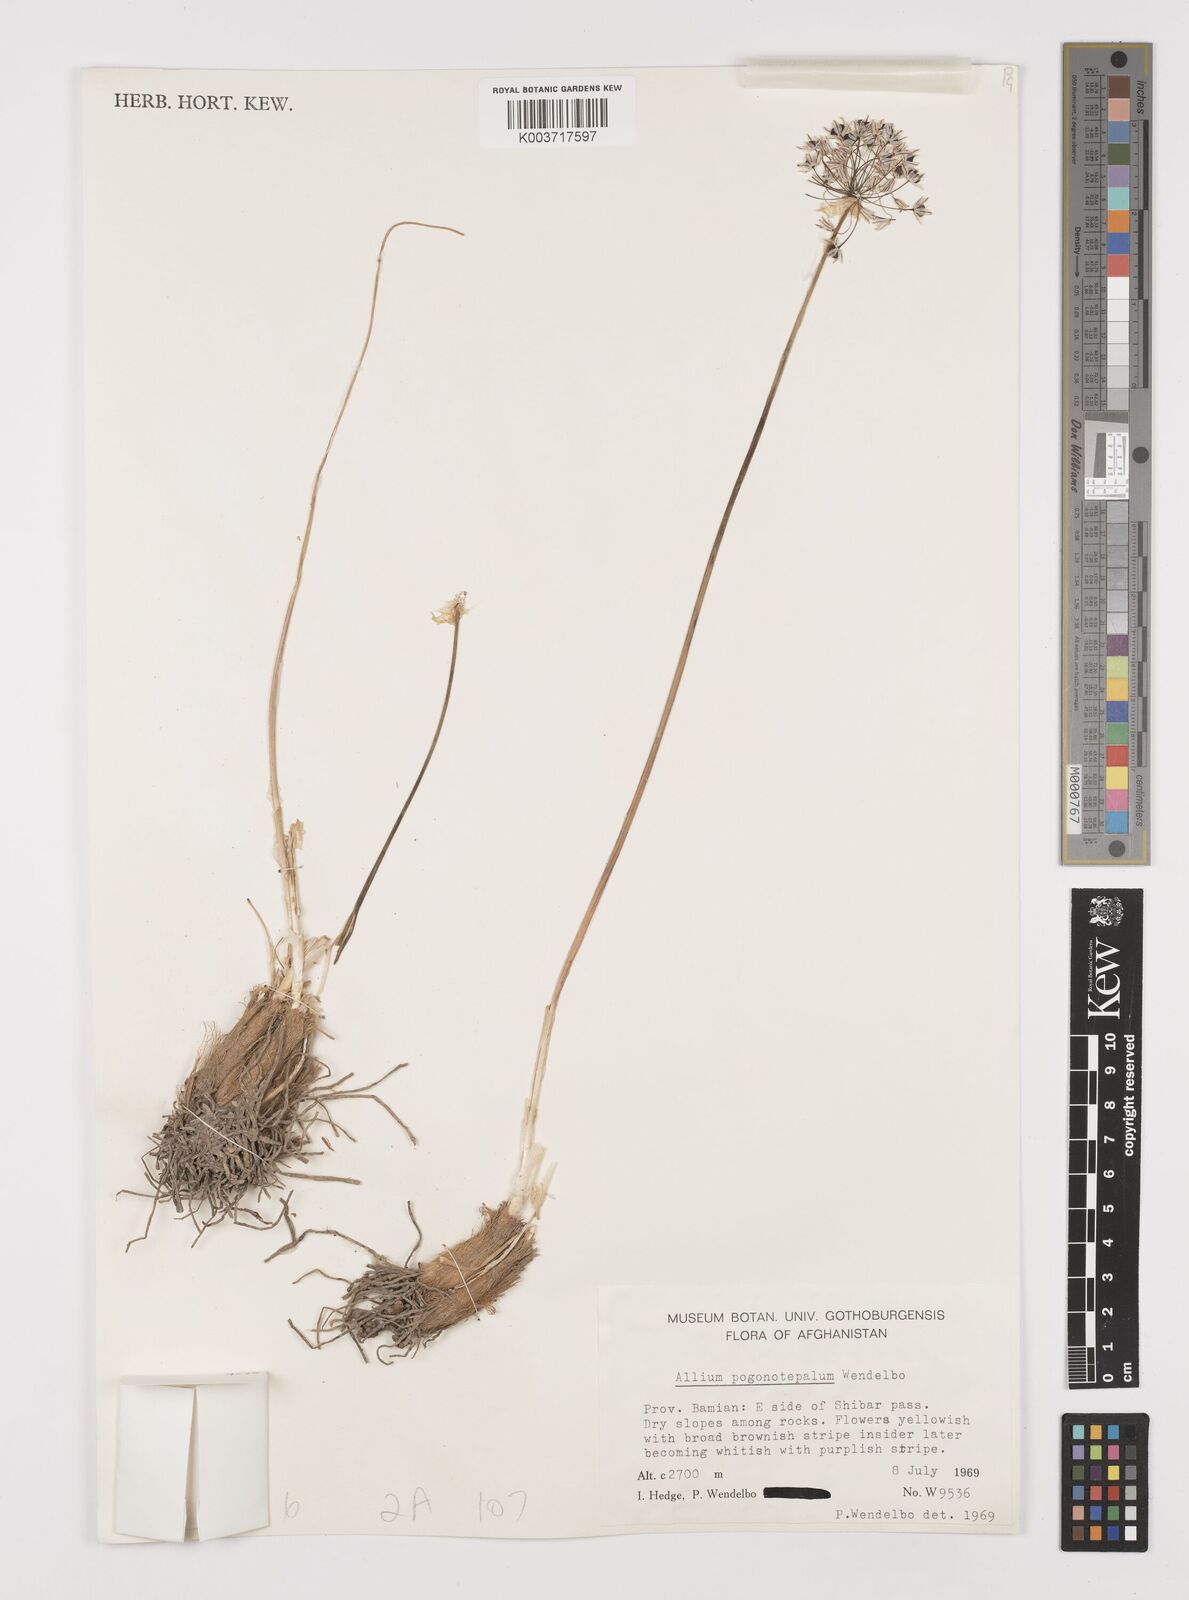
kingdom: Plantae
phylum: Tracheophyta
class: Liliopsida
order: Asparagales
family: Amaryllidaceae
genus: Allium
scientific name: Allium pogonotepalum
